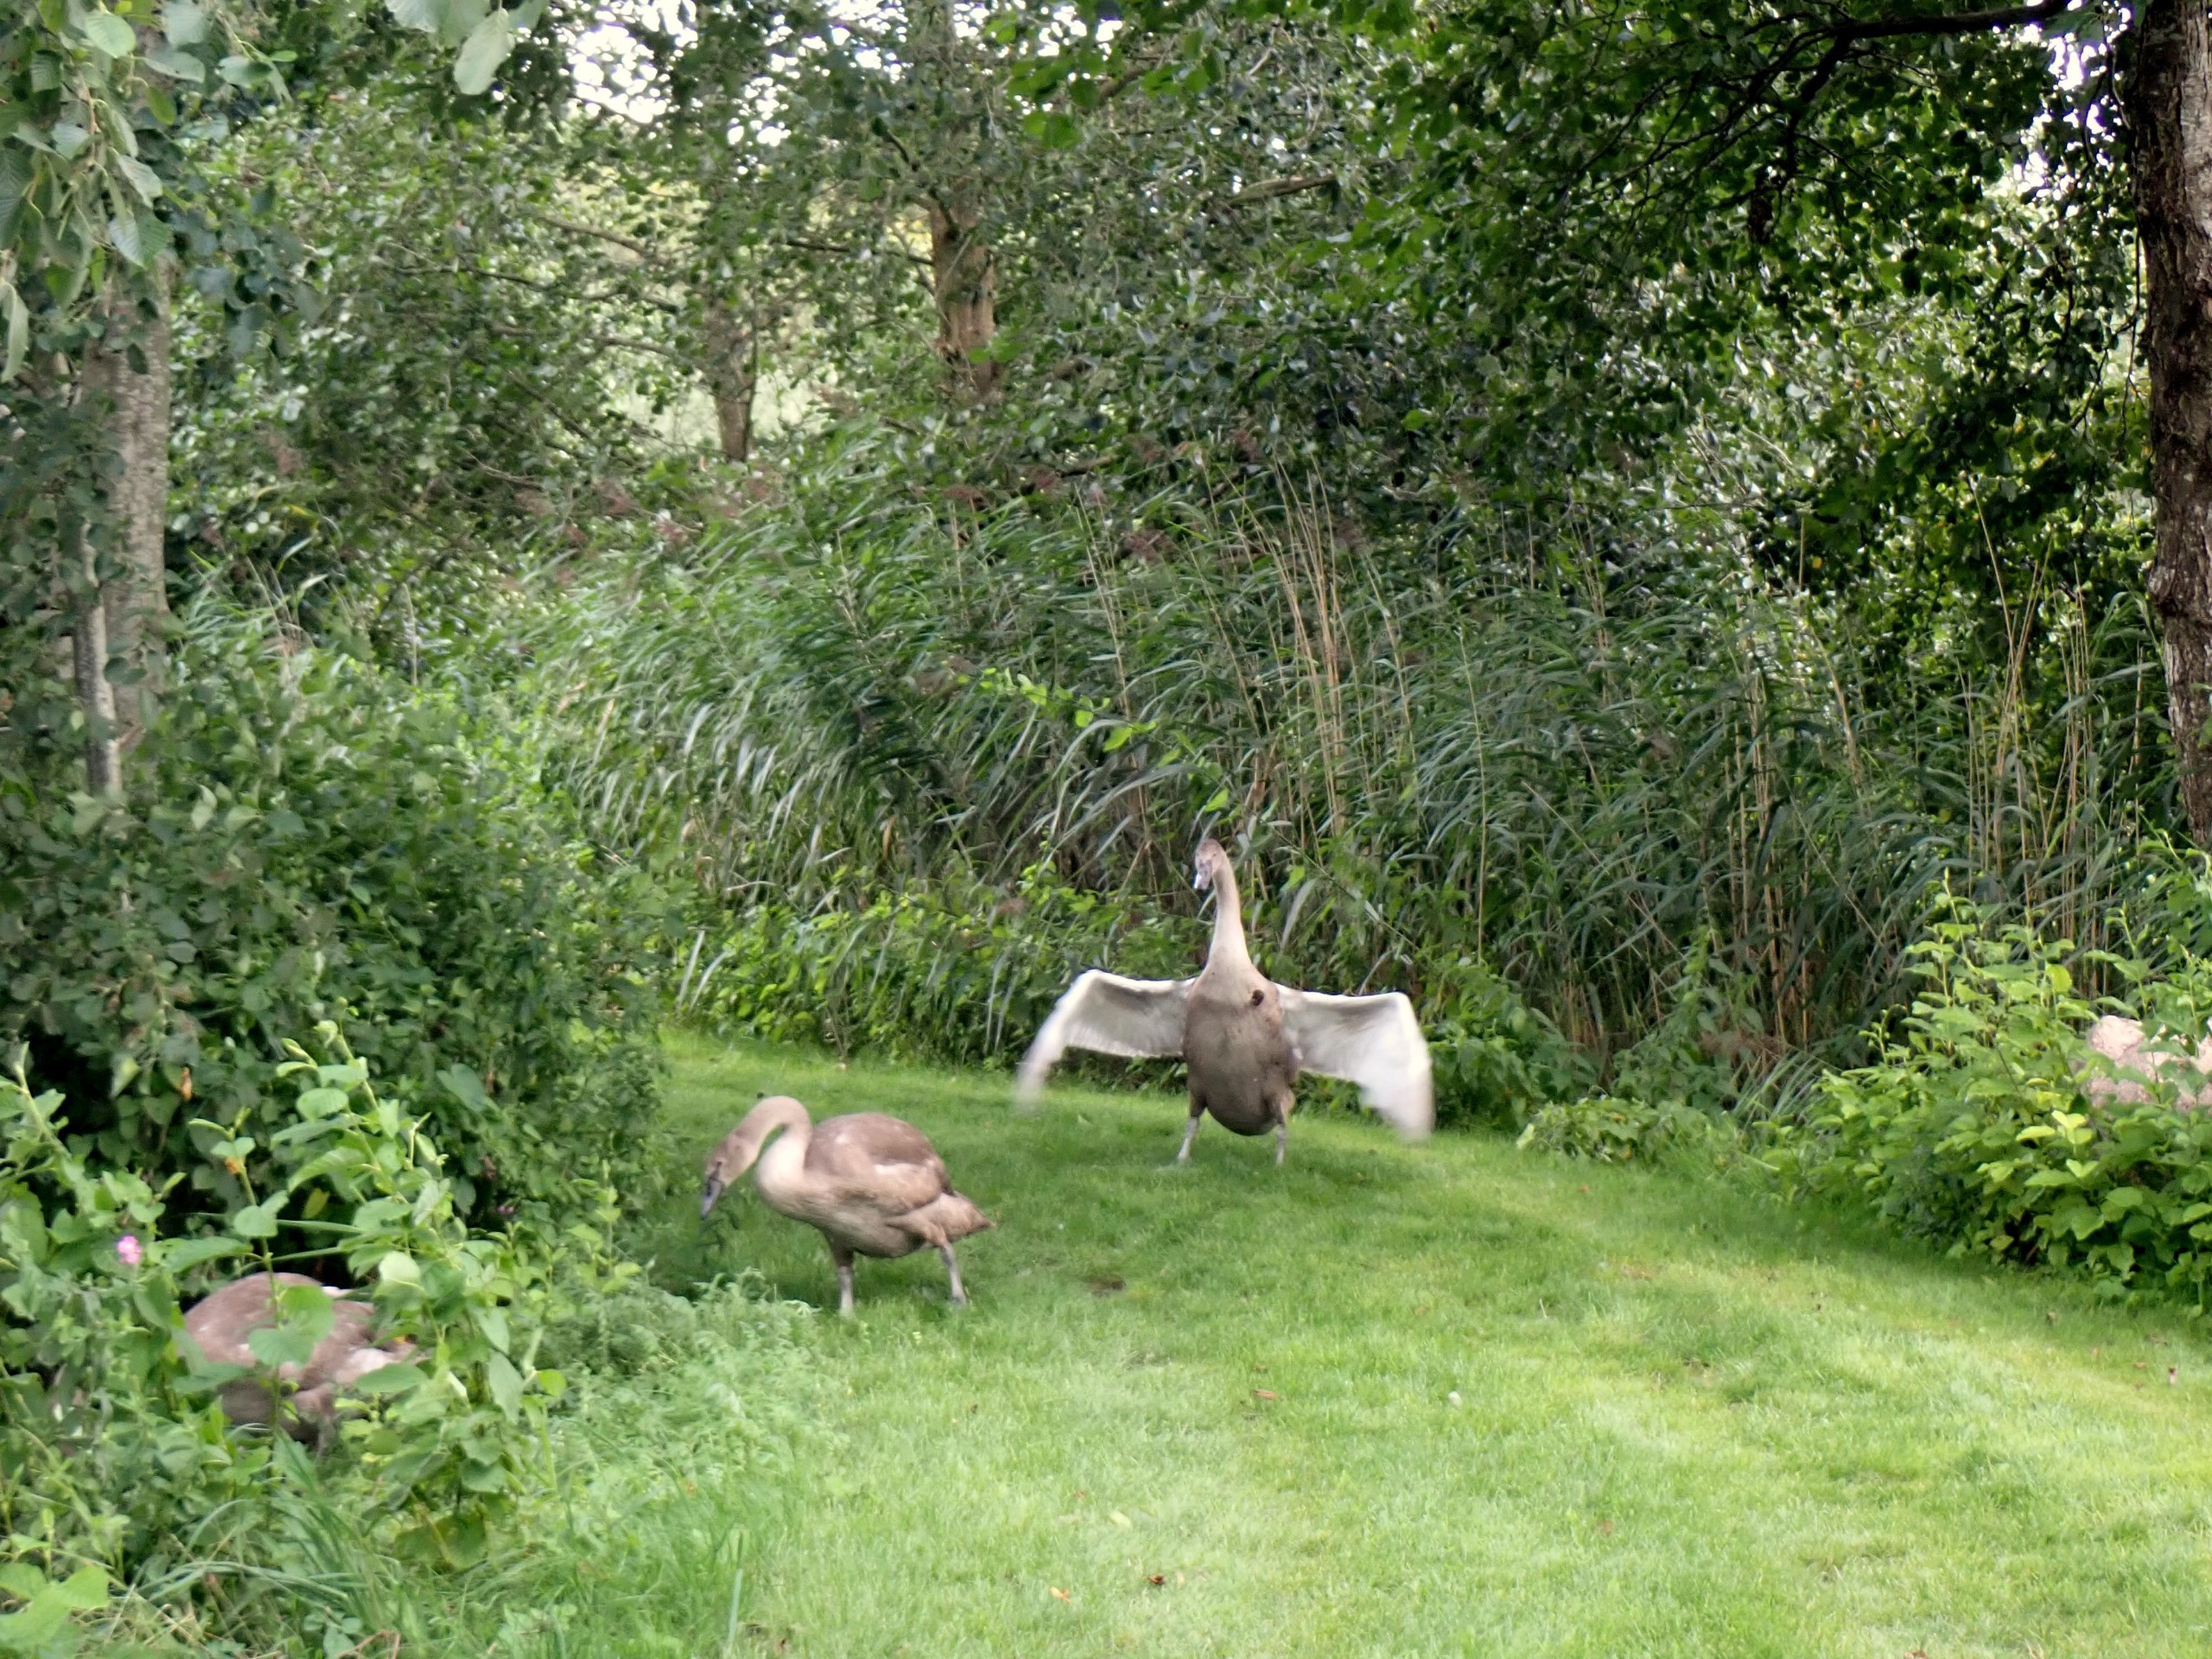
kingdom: Animalia
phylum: Chordata
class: Aves
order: Anseriformes
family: Anatidae
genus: Cygnus
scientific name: Cygnus olor
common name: Knopsvane
